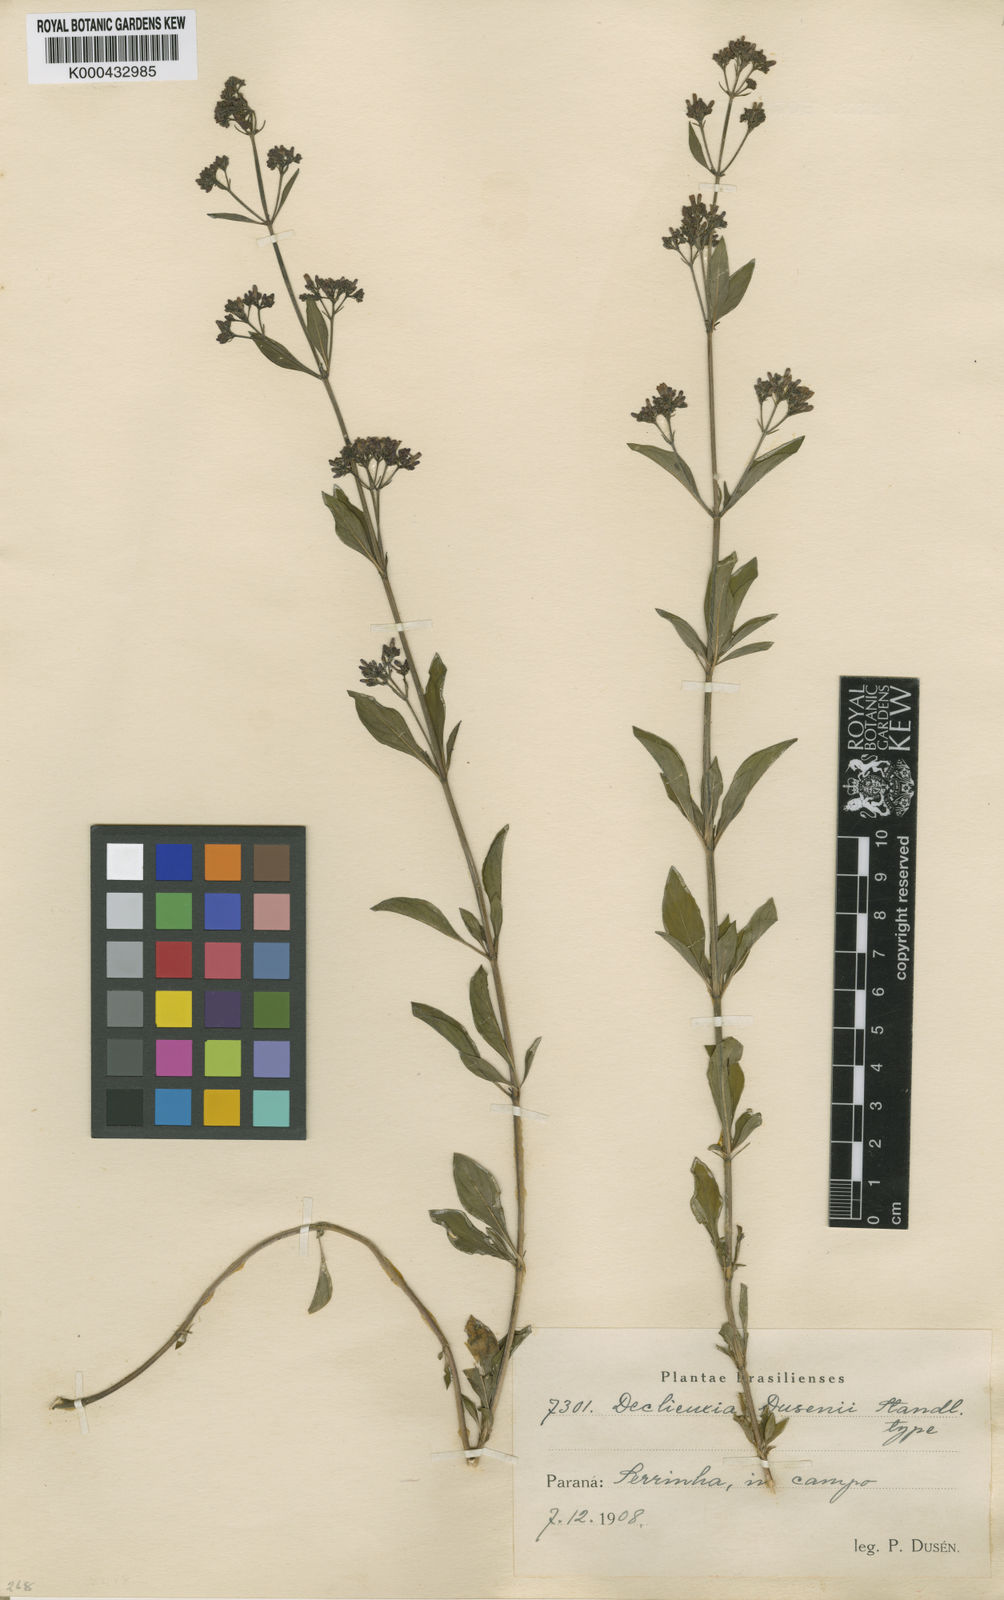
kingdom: Plantae
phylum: Tracheophyta
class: Magnoliopsida
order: Gentianales
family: Rubiaceae
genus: Declieuxia
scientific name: Declieuxia dusenii
